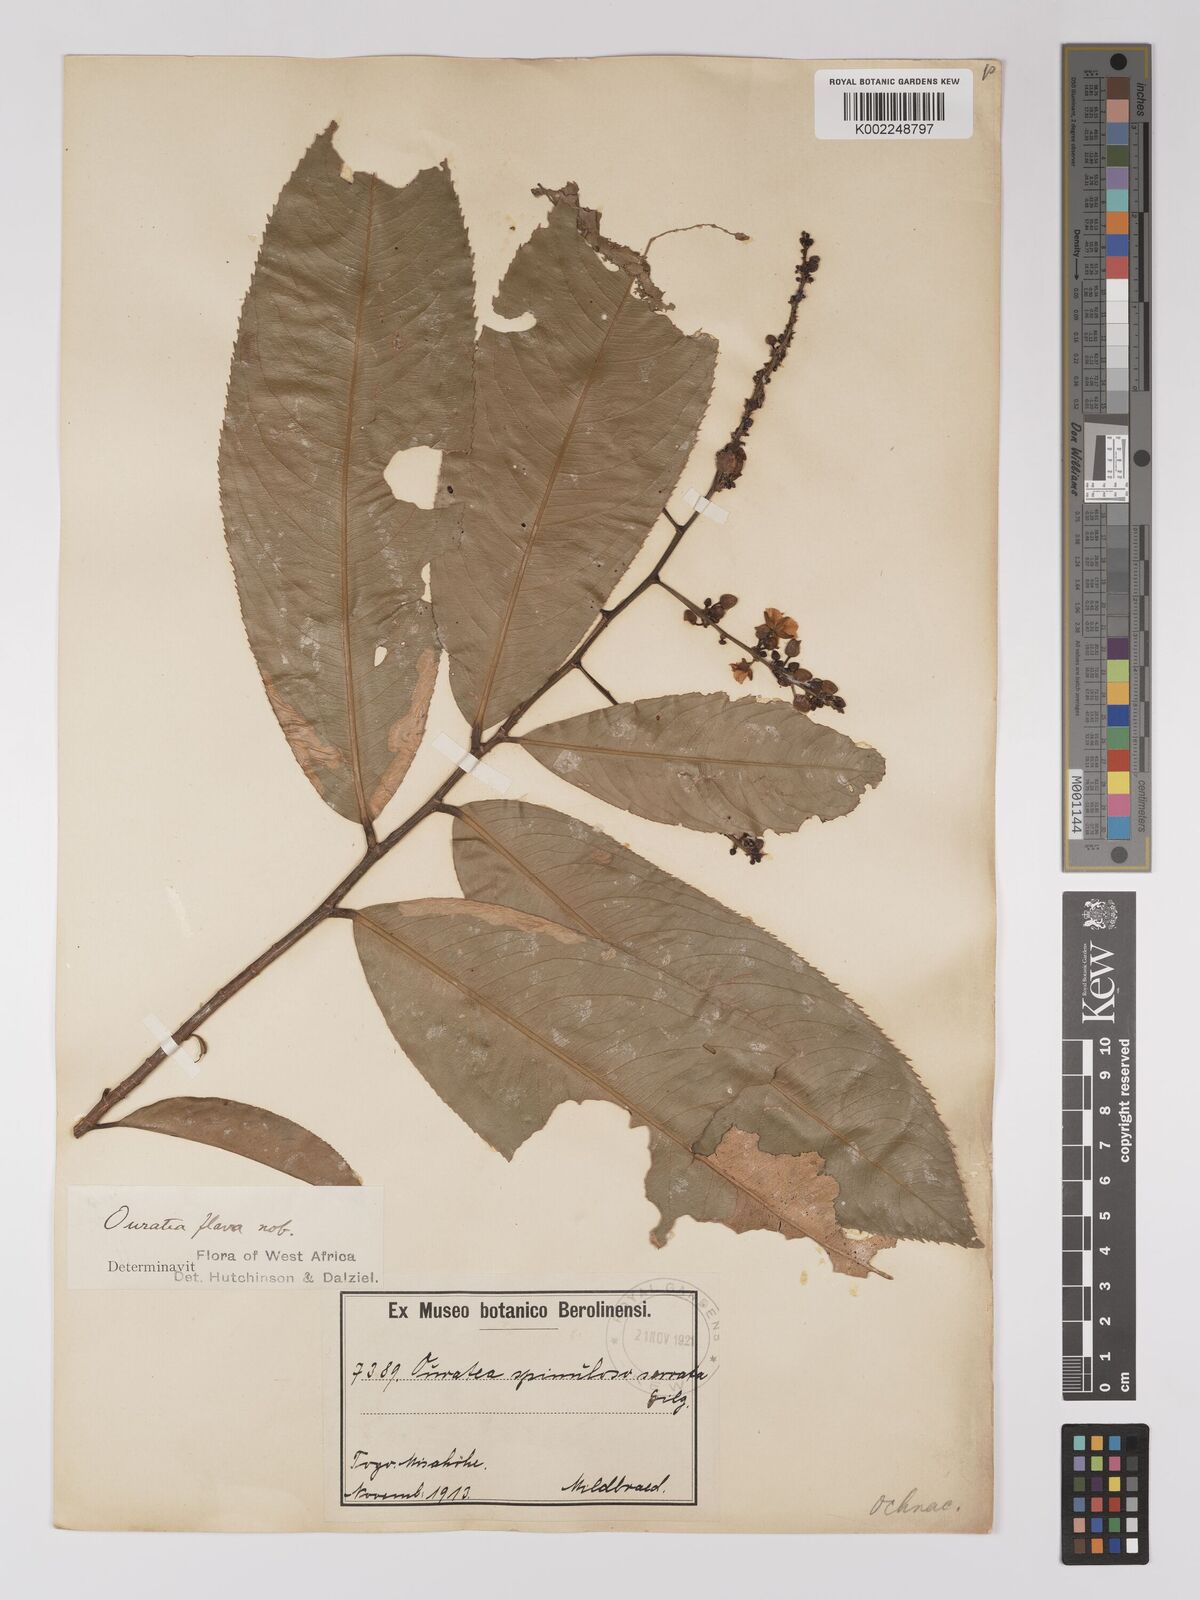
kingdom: Plantae
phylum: Tracheophyta
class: Magnoliopsida
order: Malpighiales
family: Ochnaceae
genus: Campylospermum
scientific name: Campylospermum flavum
